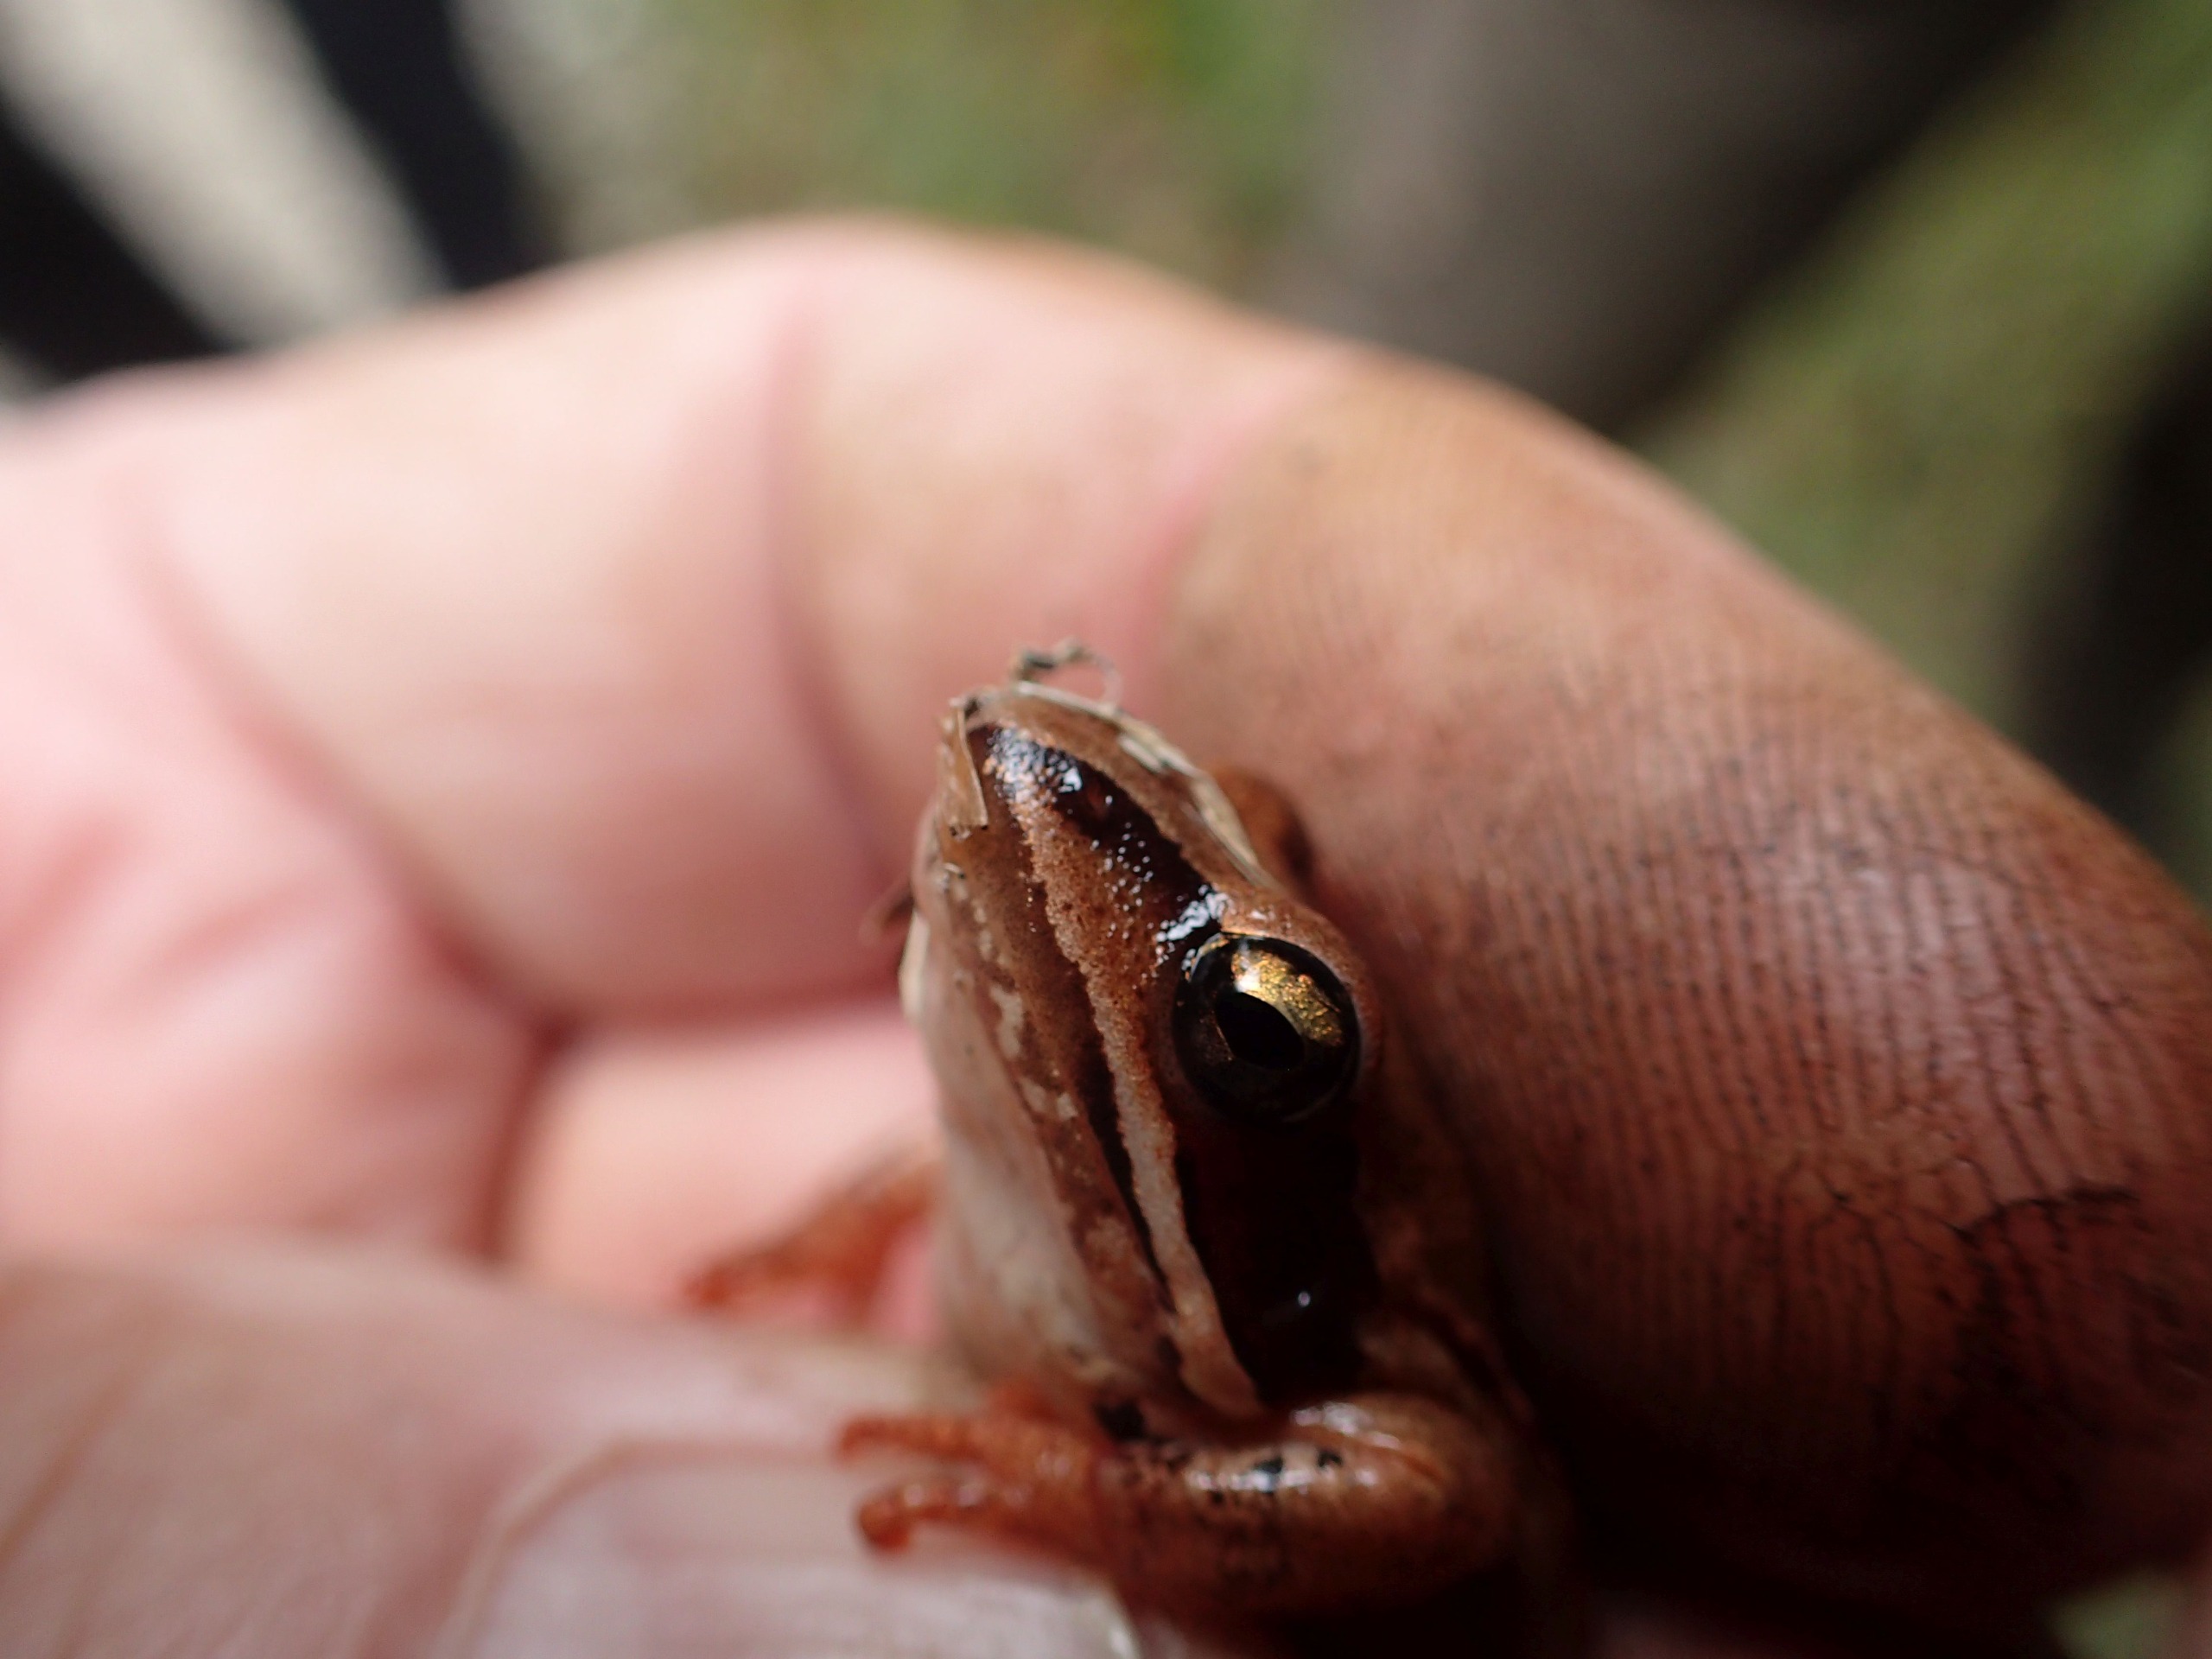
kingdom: Animalia
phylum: Chordata
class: Amphibia
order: Anura
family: Ranidae
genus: Rana
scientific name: Rana arvalis
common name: Spidssnudet frø
